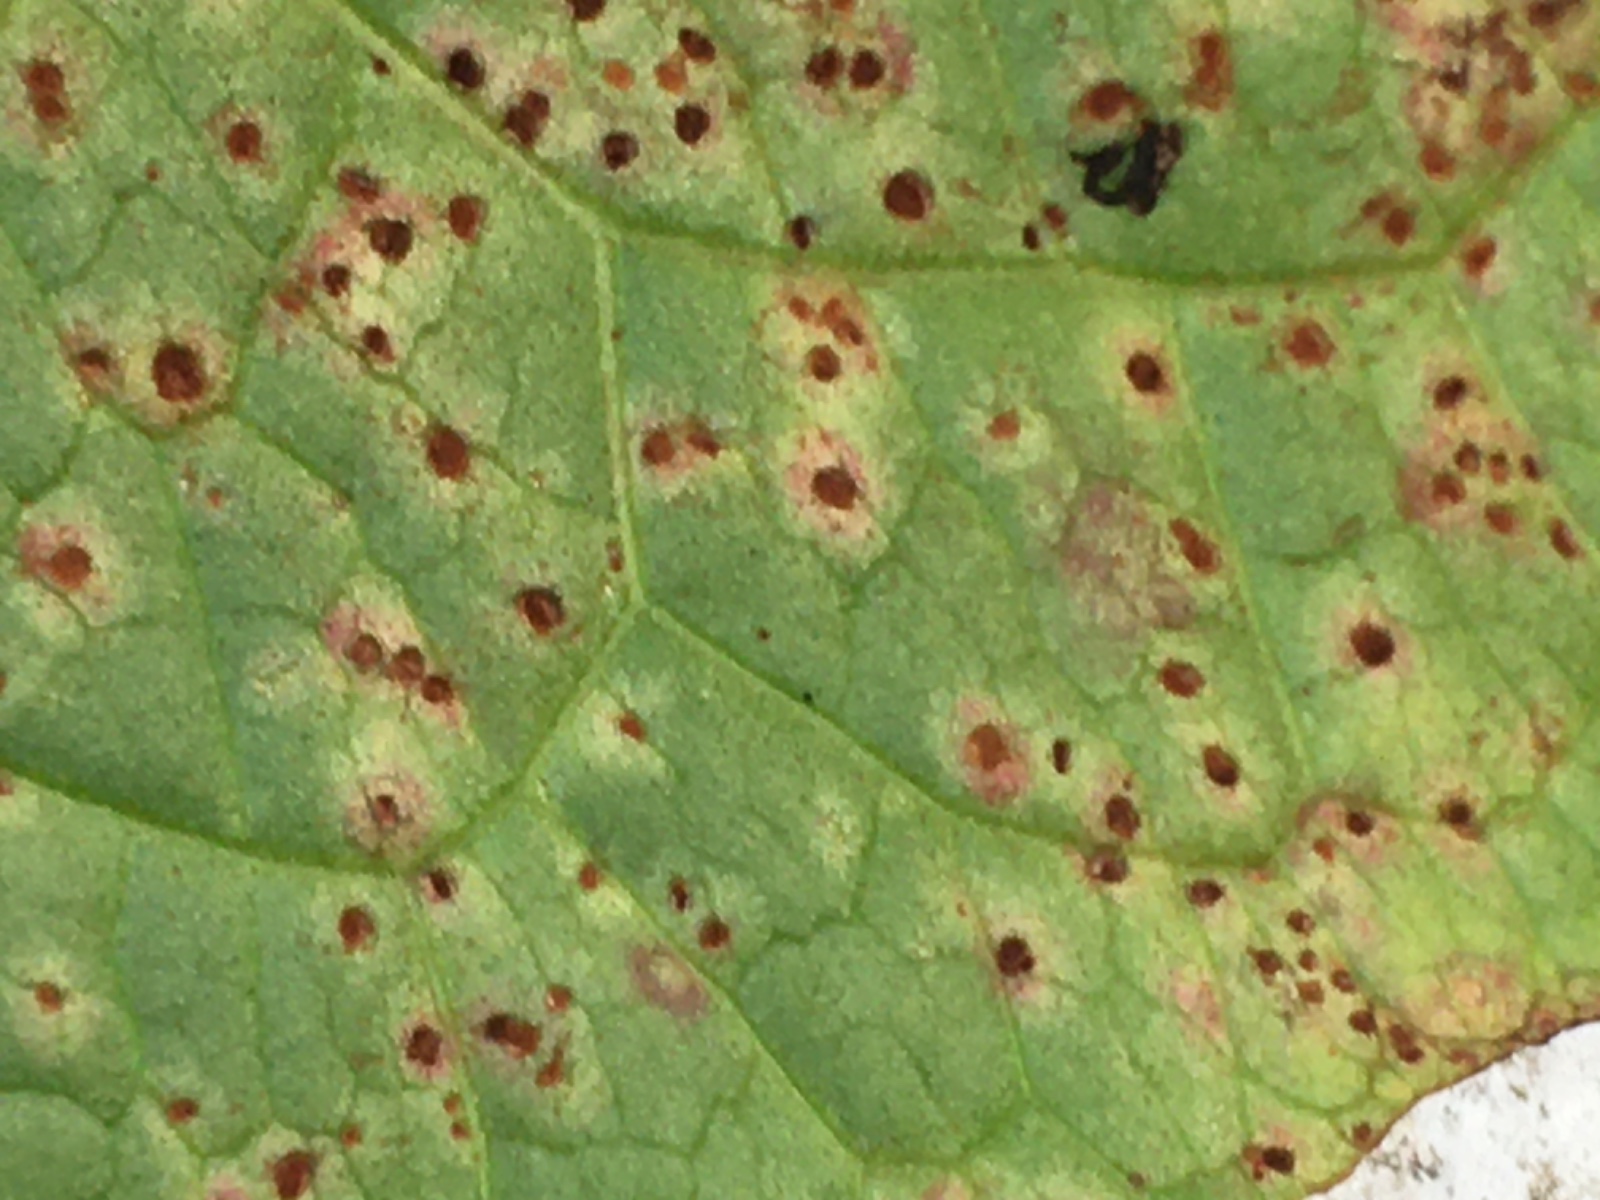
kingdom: Fungi
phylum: Basidiomycota
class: Pucciniomycetes
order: Pucciniales
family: Pucciniaceae
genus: Uromyces
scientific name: Uromyces rumicis
